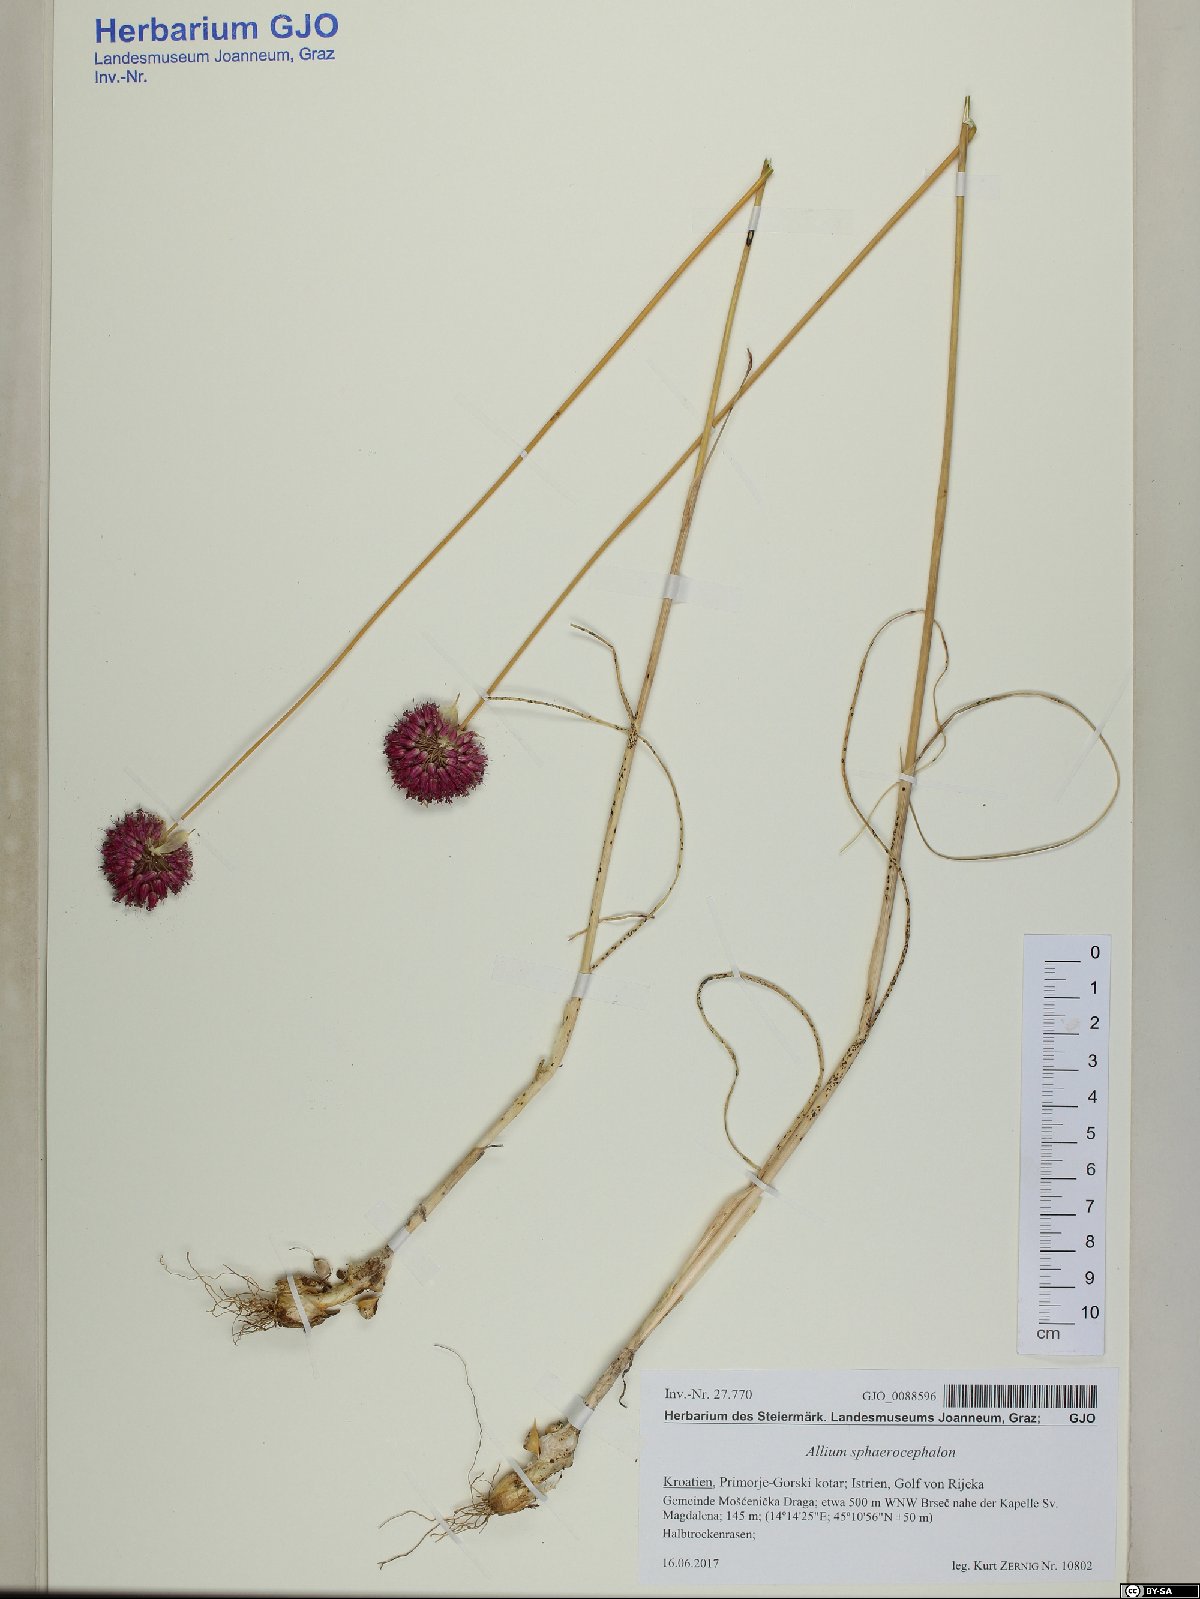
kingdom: Plantae
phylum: Tracheophyta
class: Liliopsida
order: Asparagales
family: Amaryllidaceae
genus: Allium
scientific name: Allium sphaerocephalon
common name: Round-headed leek
